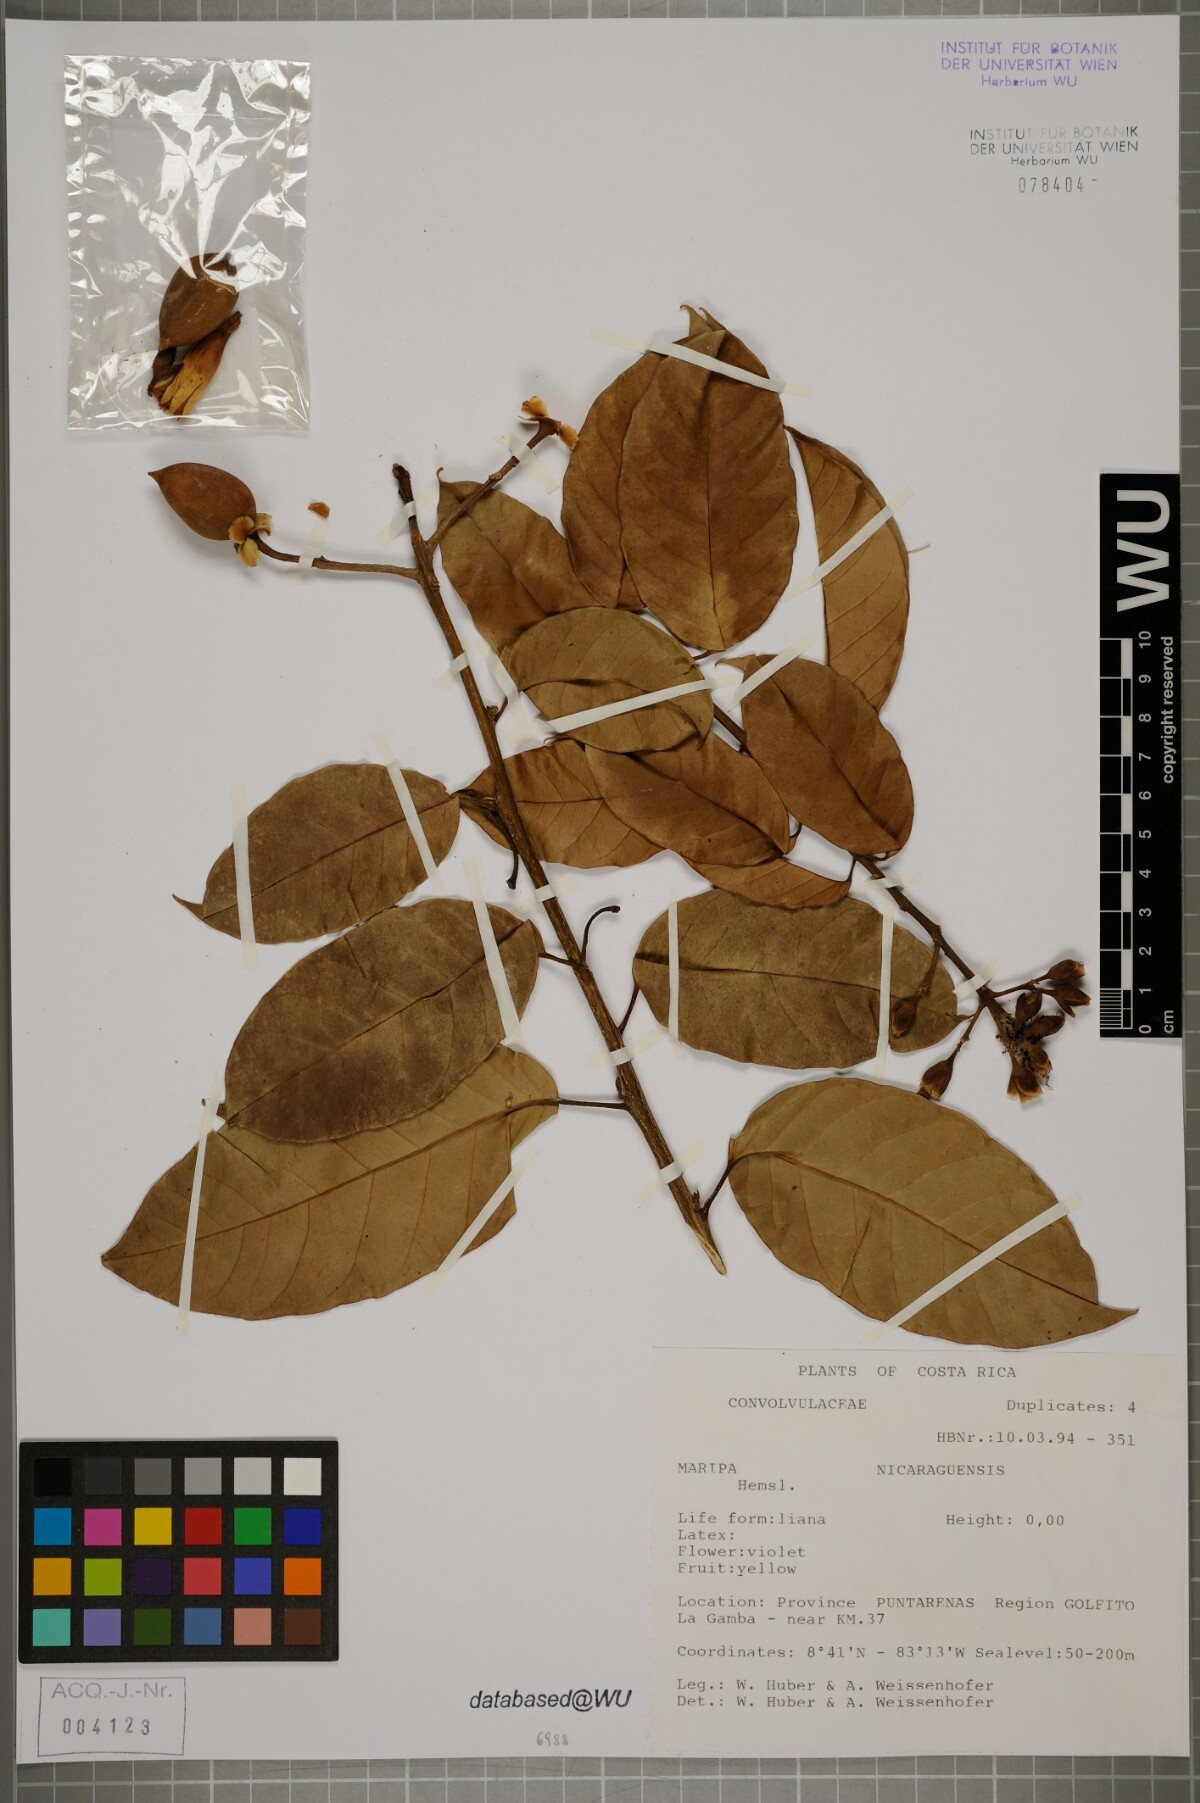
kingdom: Plantae
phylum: Tracheophyta
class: Magnoliopsida
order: Solanales
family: Convolvulaceae
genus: Maripa
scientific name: Maripa nicaraguensis
